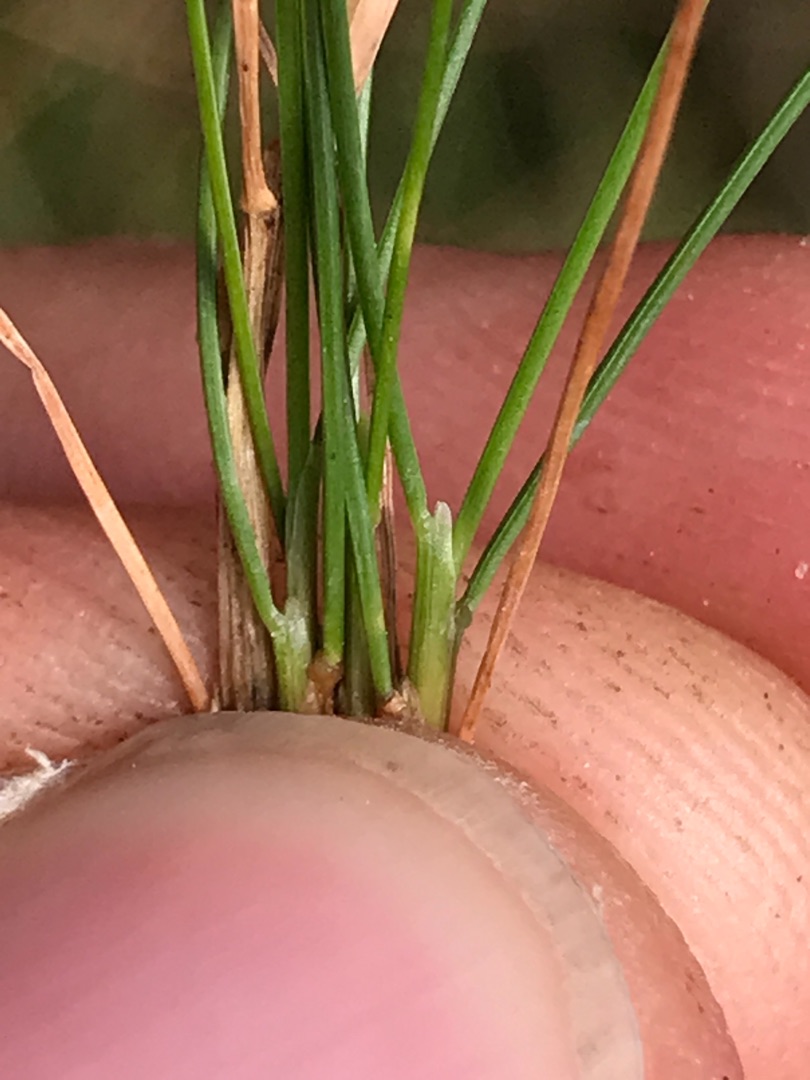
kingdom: Plantae
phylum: Tracheophyta
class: Liliopsida
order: Poales
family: Poaceae
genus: Avenella
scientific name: Avenella flexuosa
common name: Bølget bunke
